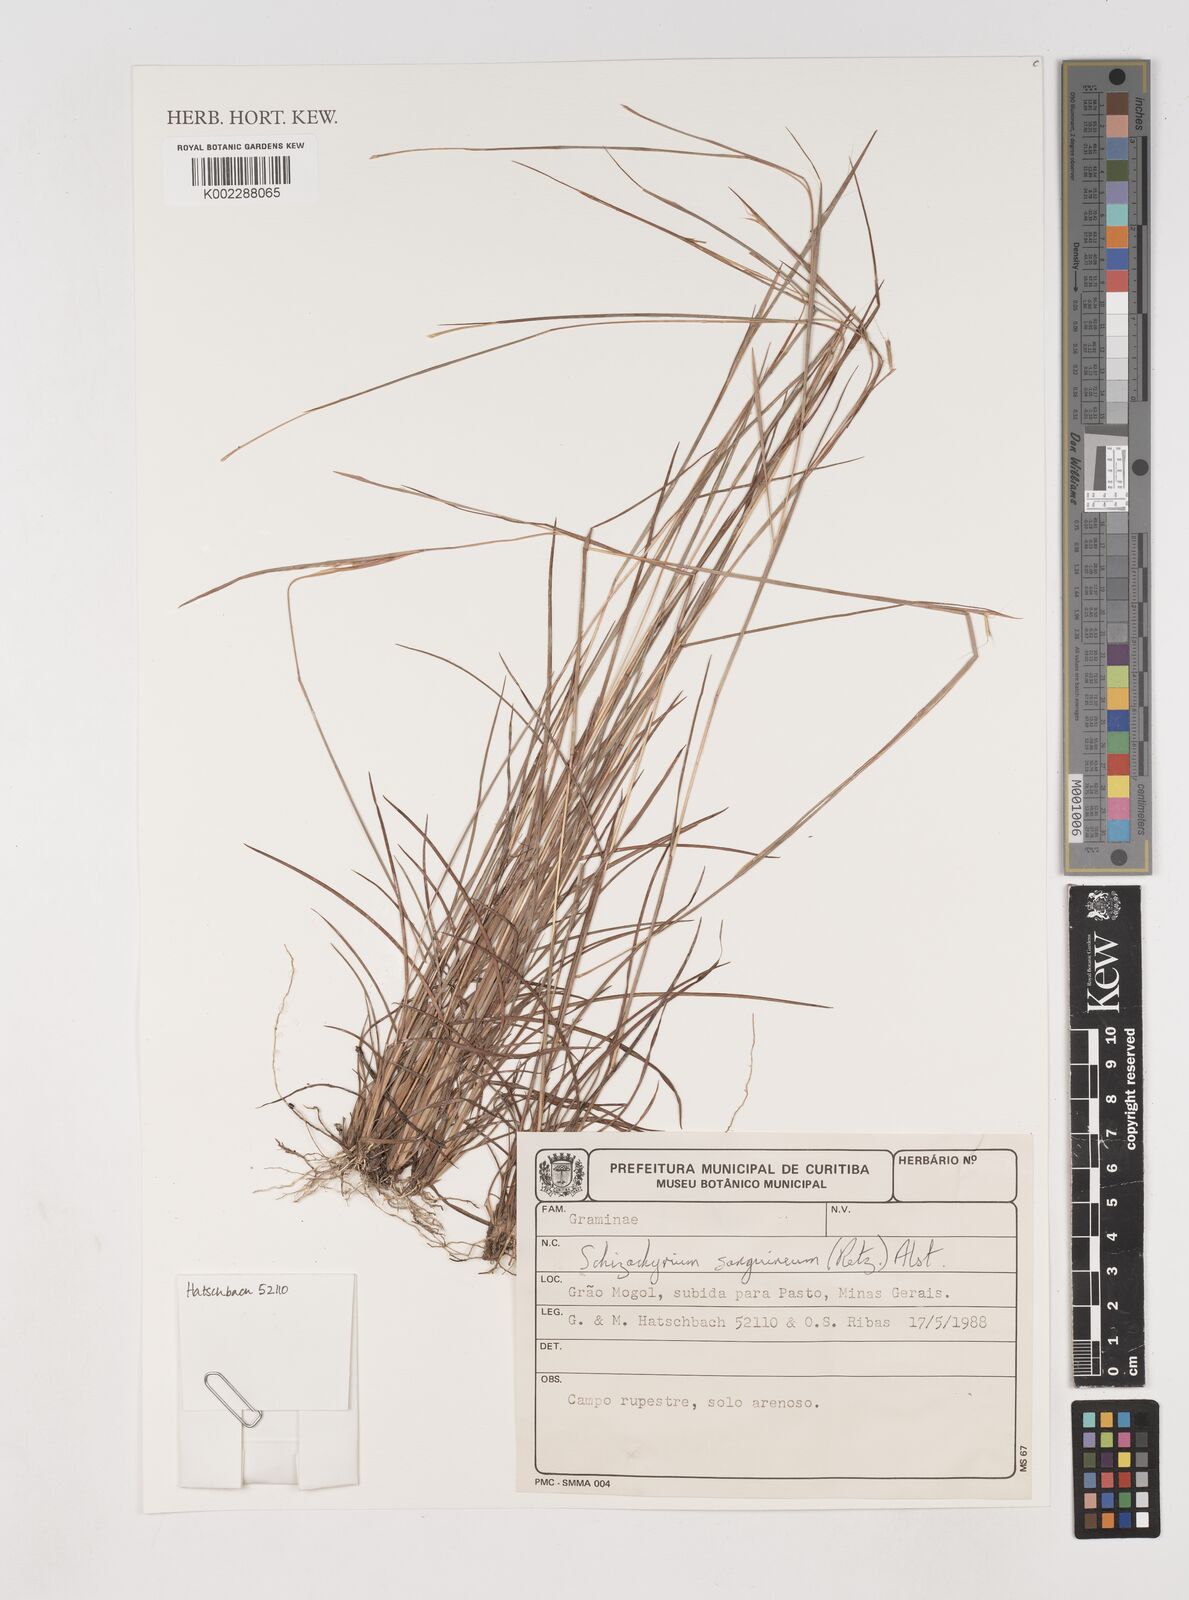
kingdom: Plantae
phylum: Tracheophyta
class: Liliopsida
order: Poales
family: Poaceae
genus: Schizachyrium
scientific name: Schizachyrium sanguineum
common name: Crimson bluestem
